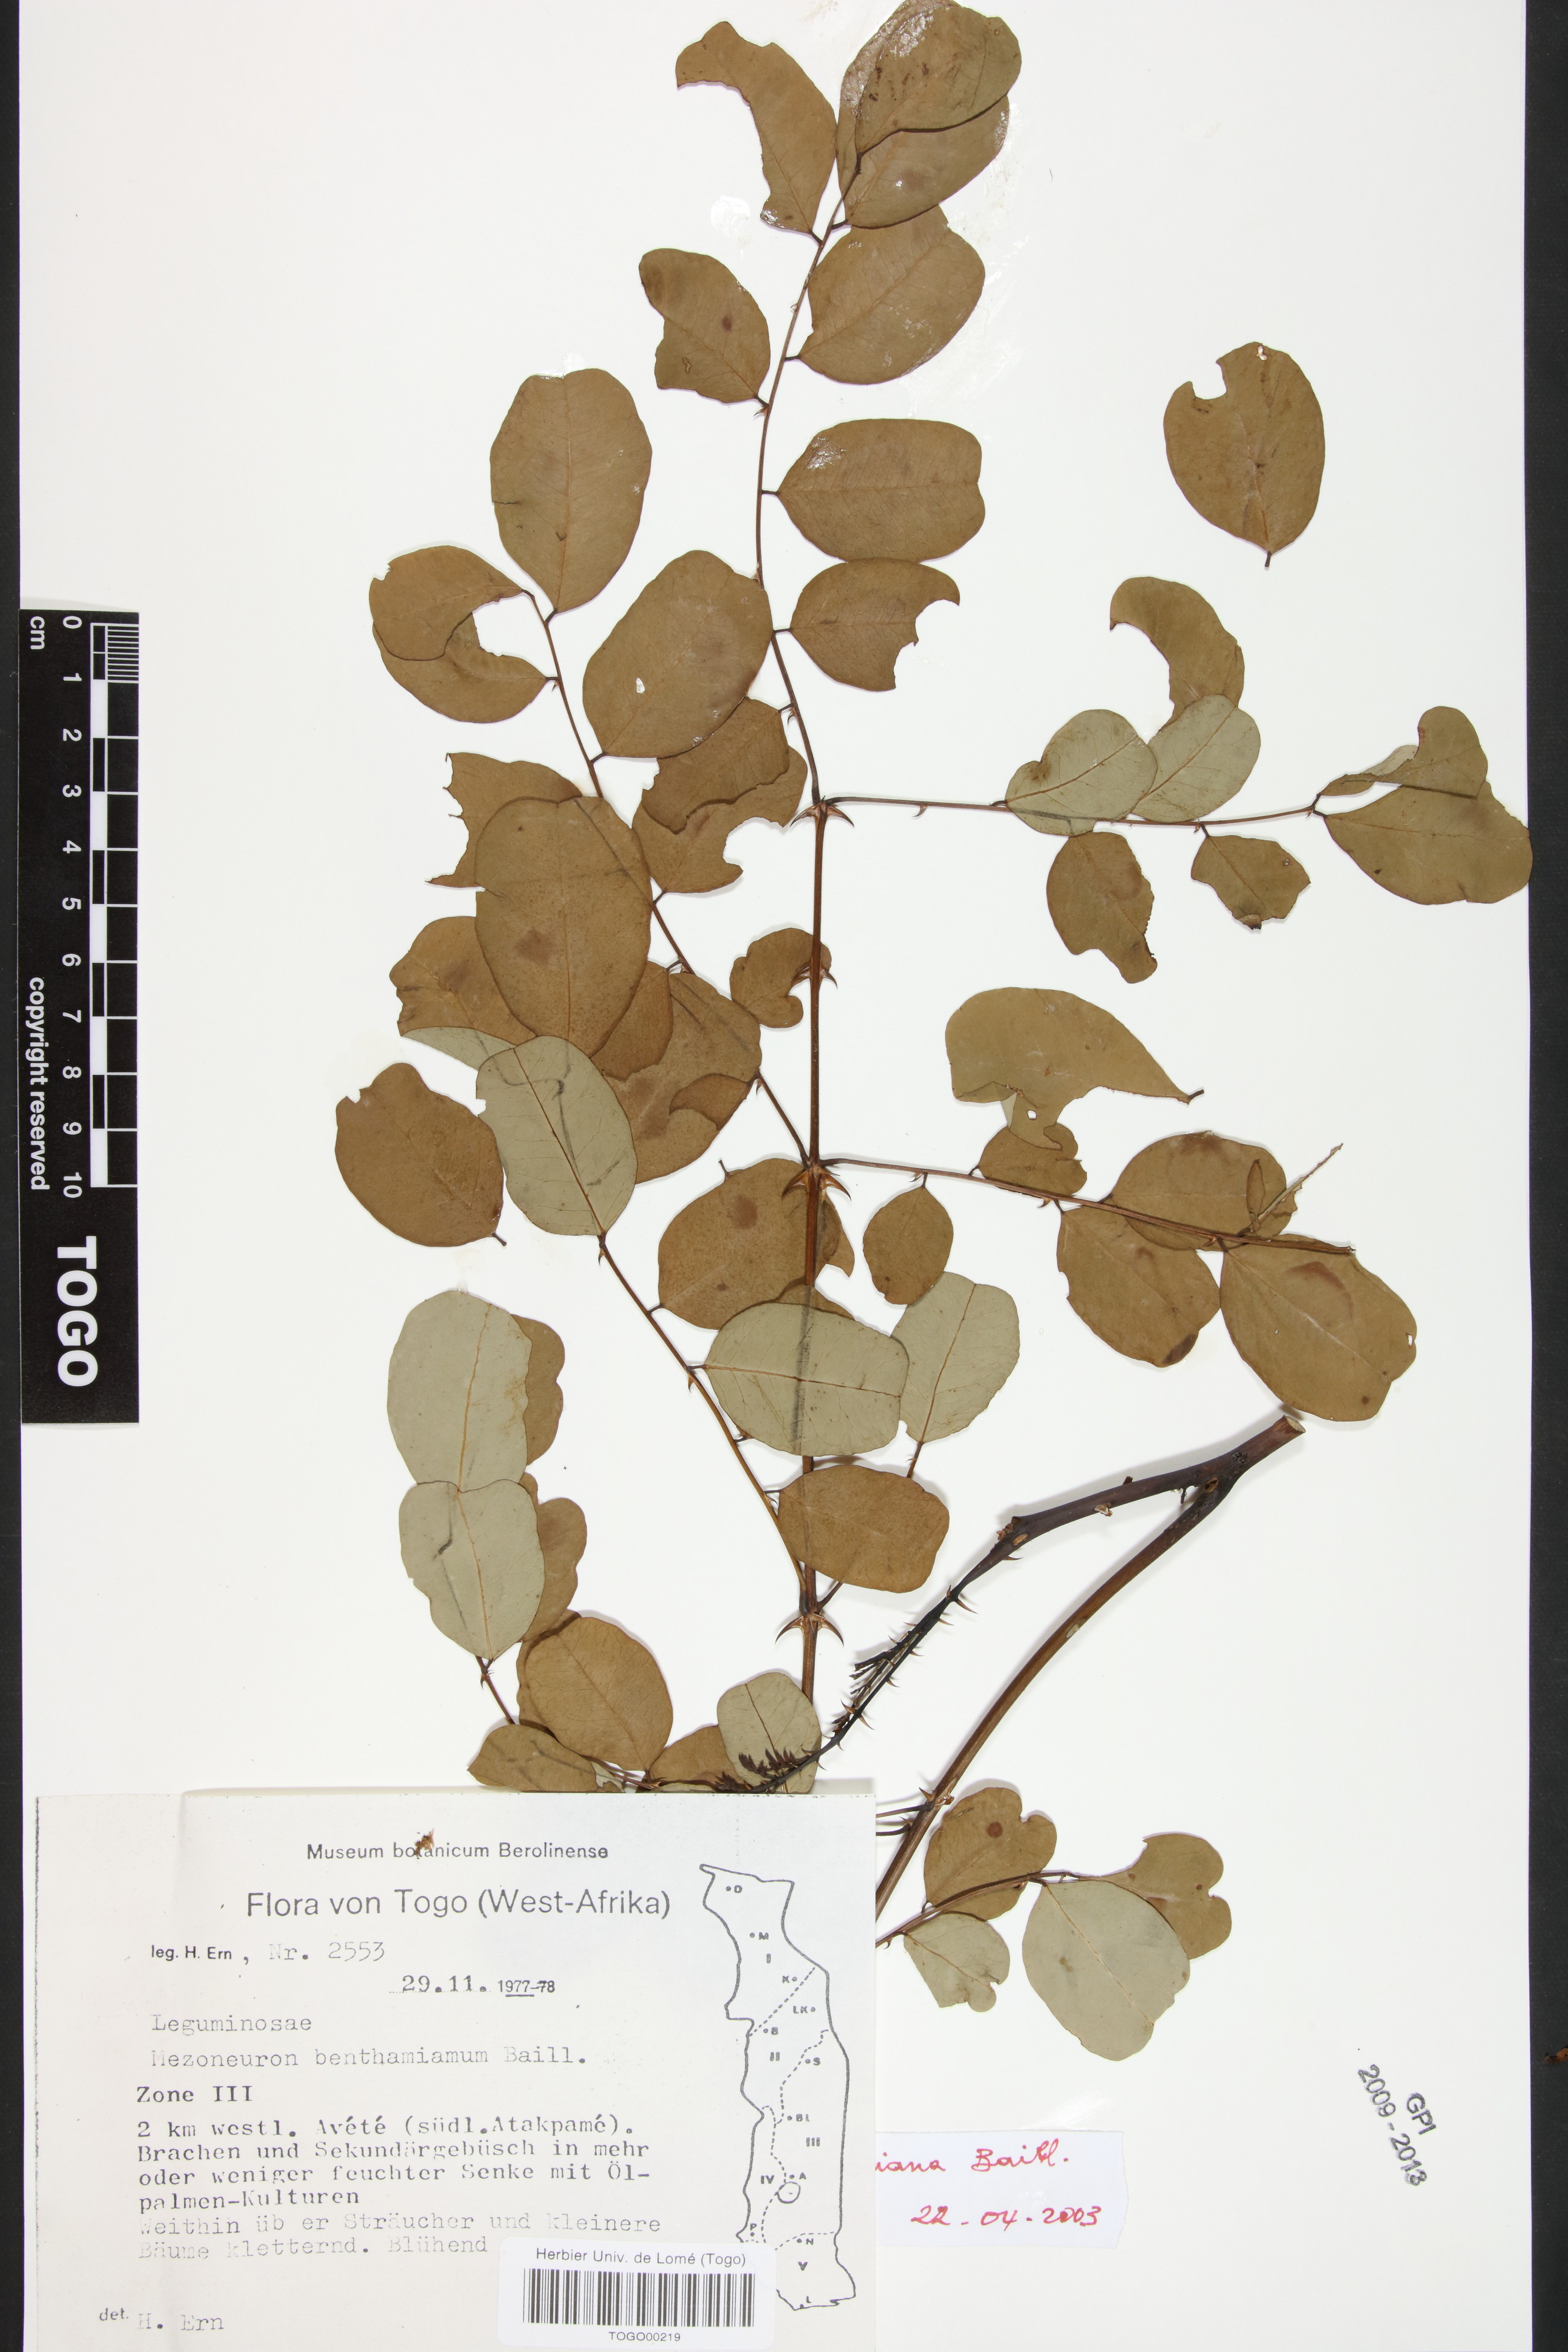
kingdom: Plantae
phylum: Tracheophyta
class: Magnoliopsida
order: Fabales
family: Fabaceae
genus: Mezoneuron
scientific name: Mezoneuron benthamianum
